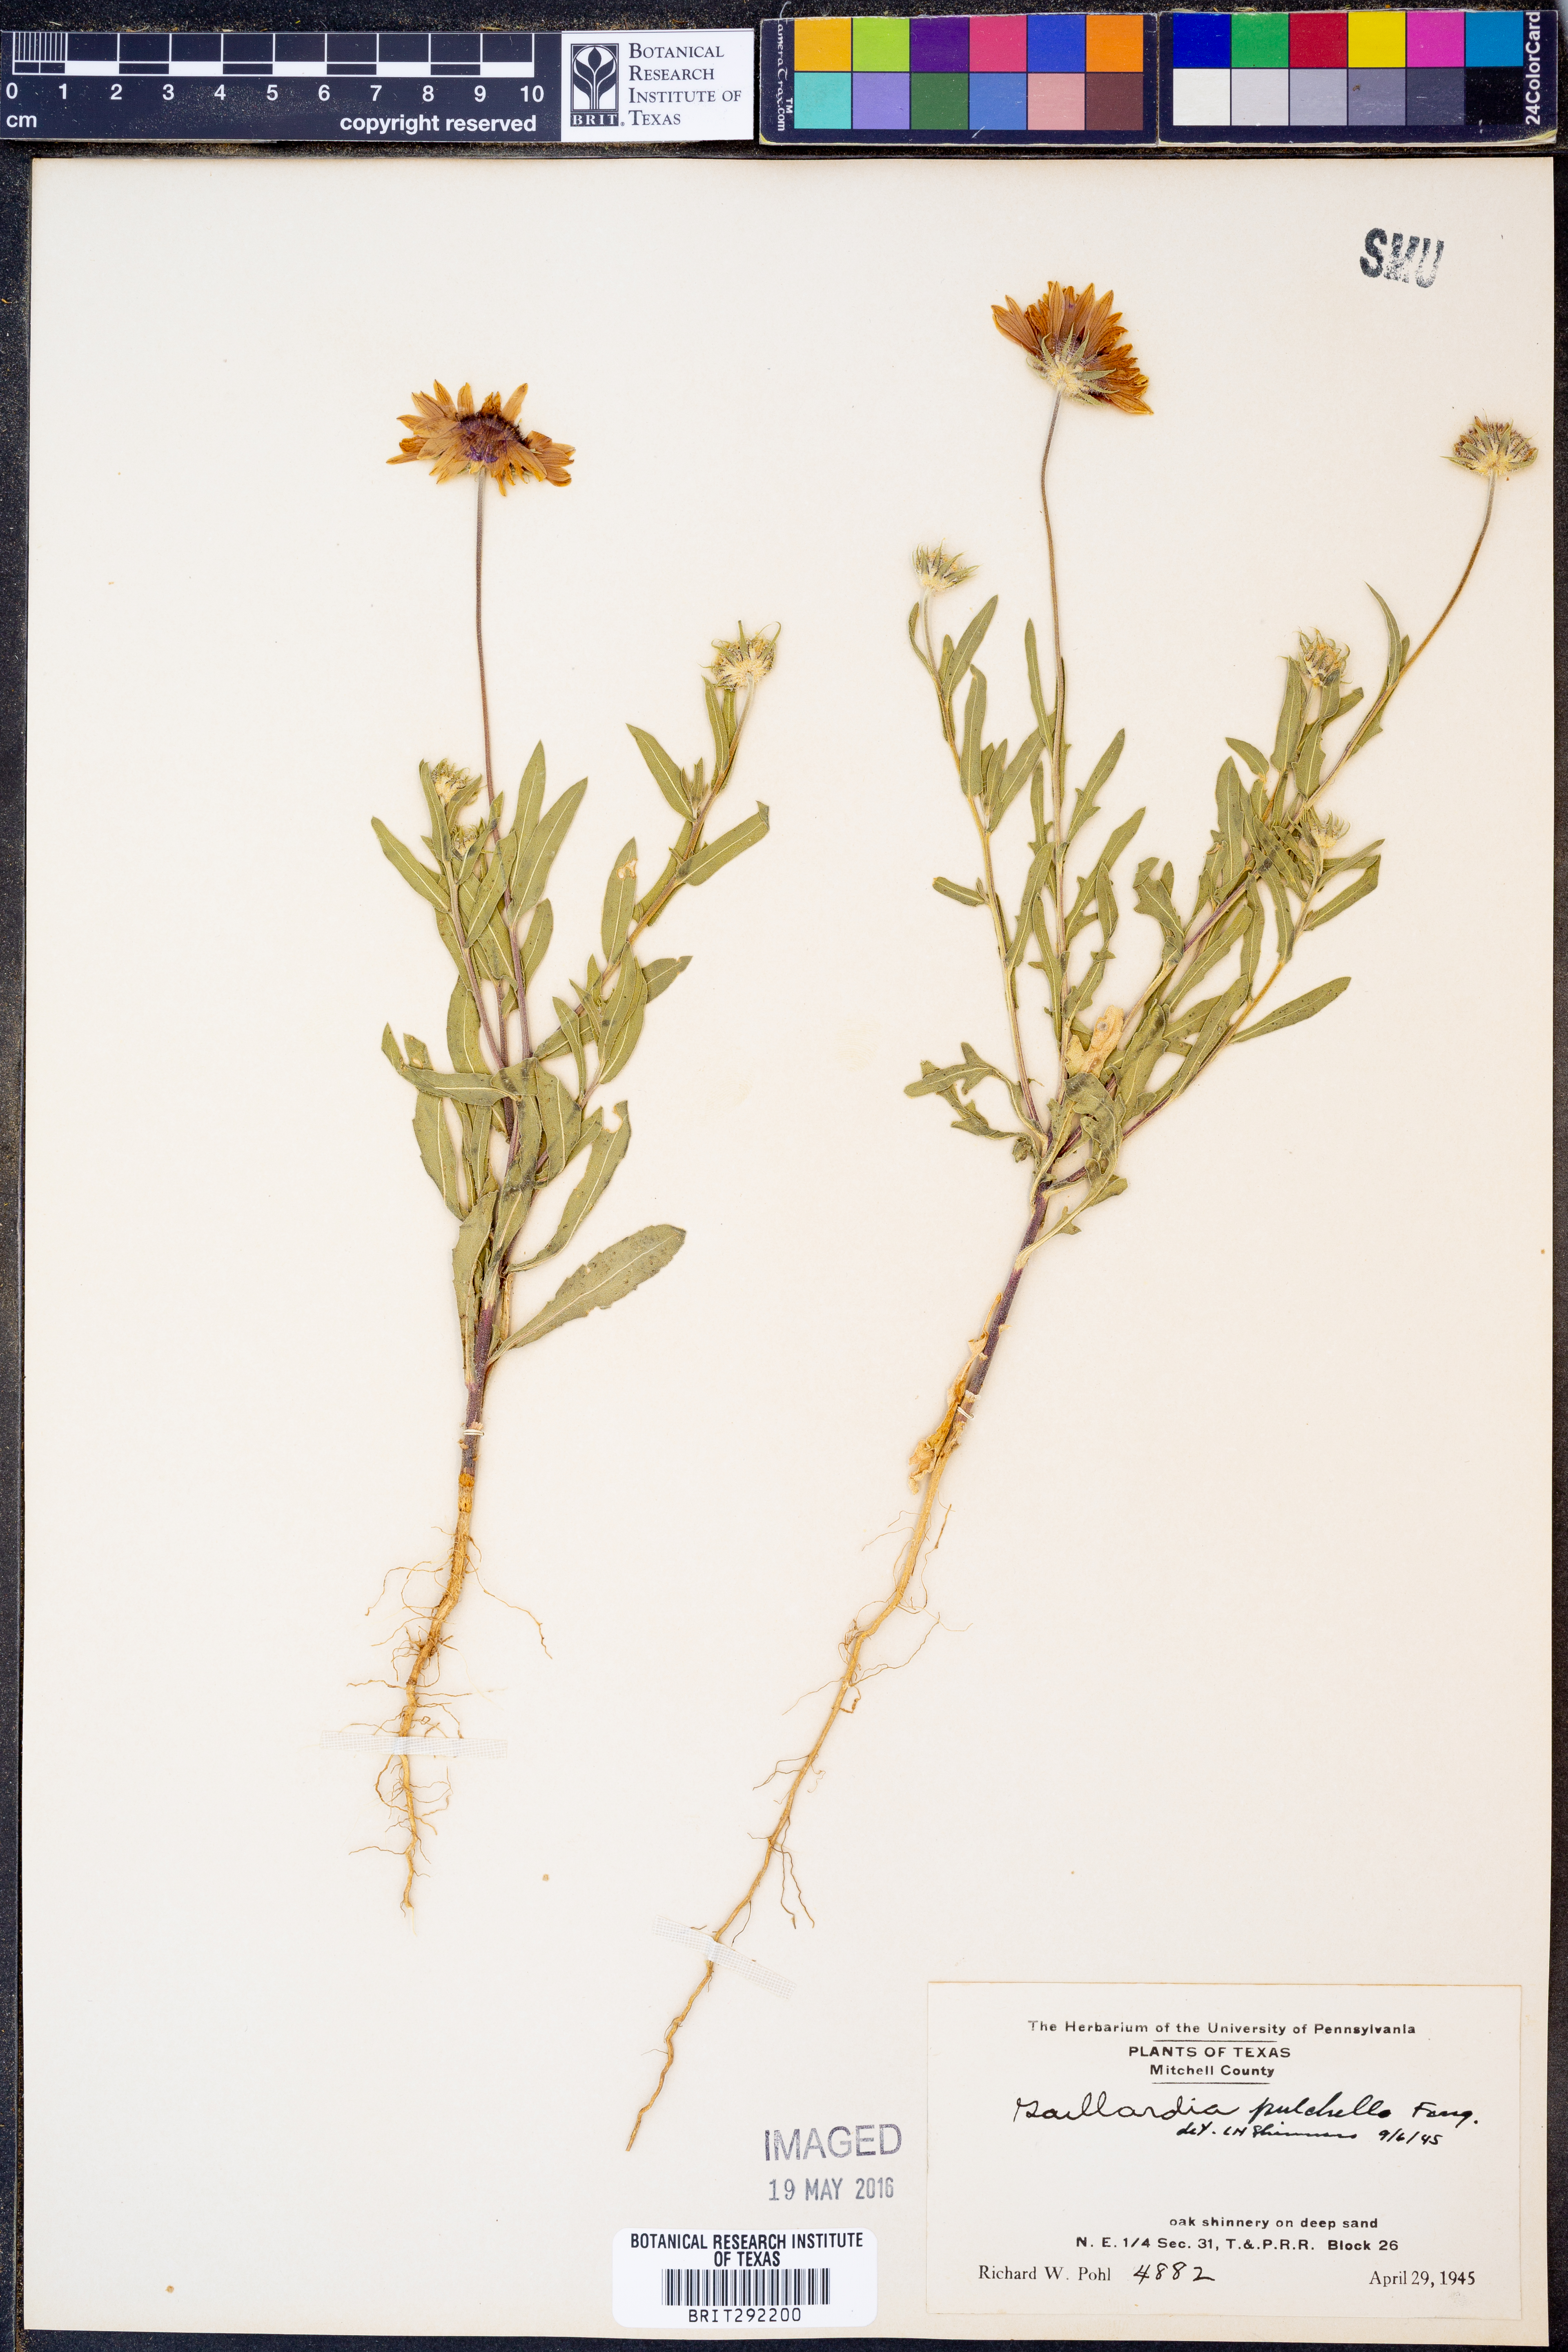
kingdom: Plantae
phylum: Tracheophyta
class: Magnoliopsida
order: Asterales
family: Asteraceae
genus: Gaillardia
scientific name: Gaillardia pulchella
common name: Firewheel
